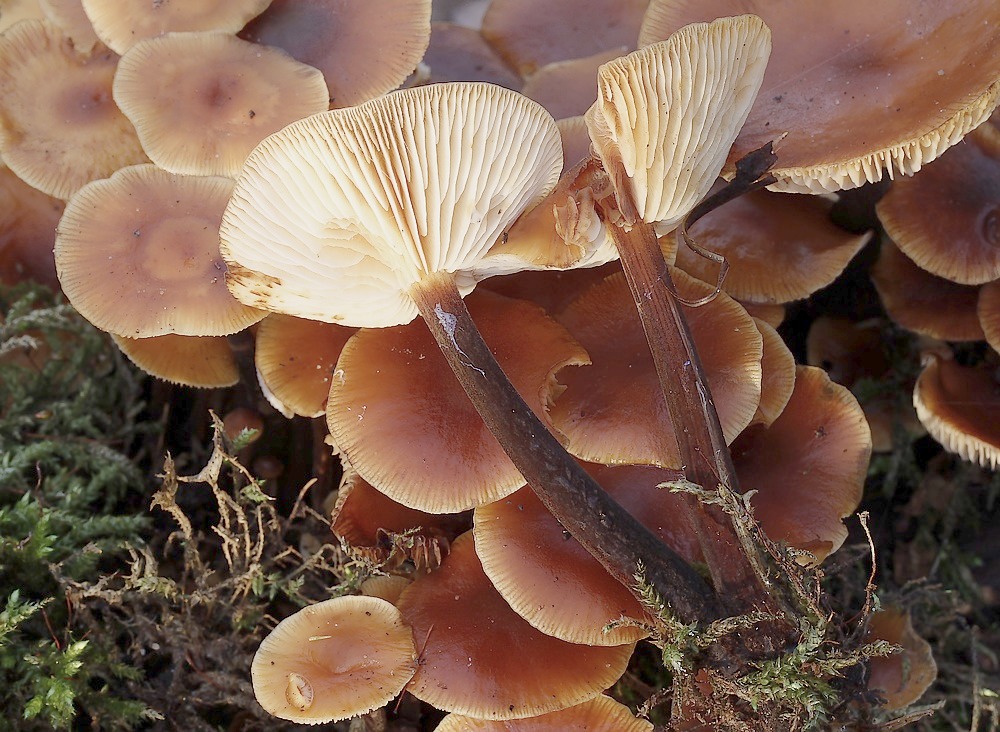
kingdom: Fungi
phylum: Basidiomycota
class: Agaricomycetes
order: Agaricales
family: Physalacriaceae
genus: Flammulina
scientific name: Flammulina velutipes
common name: gul fløjlsfod
